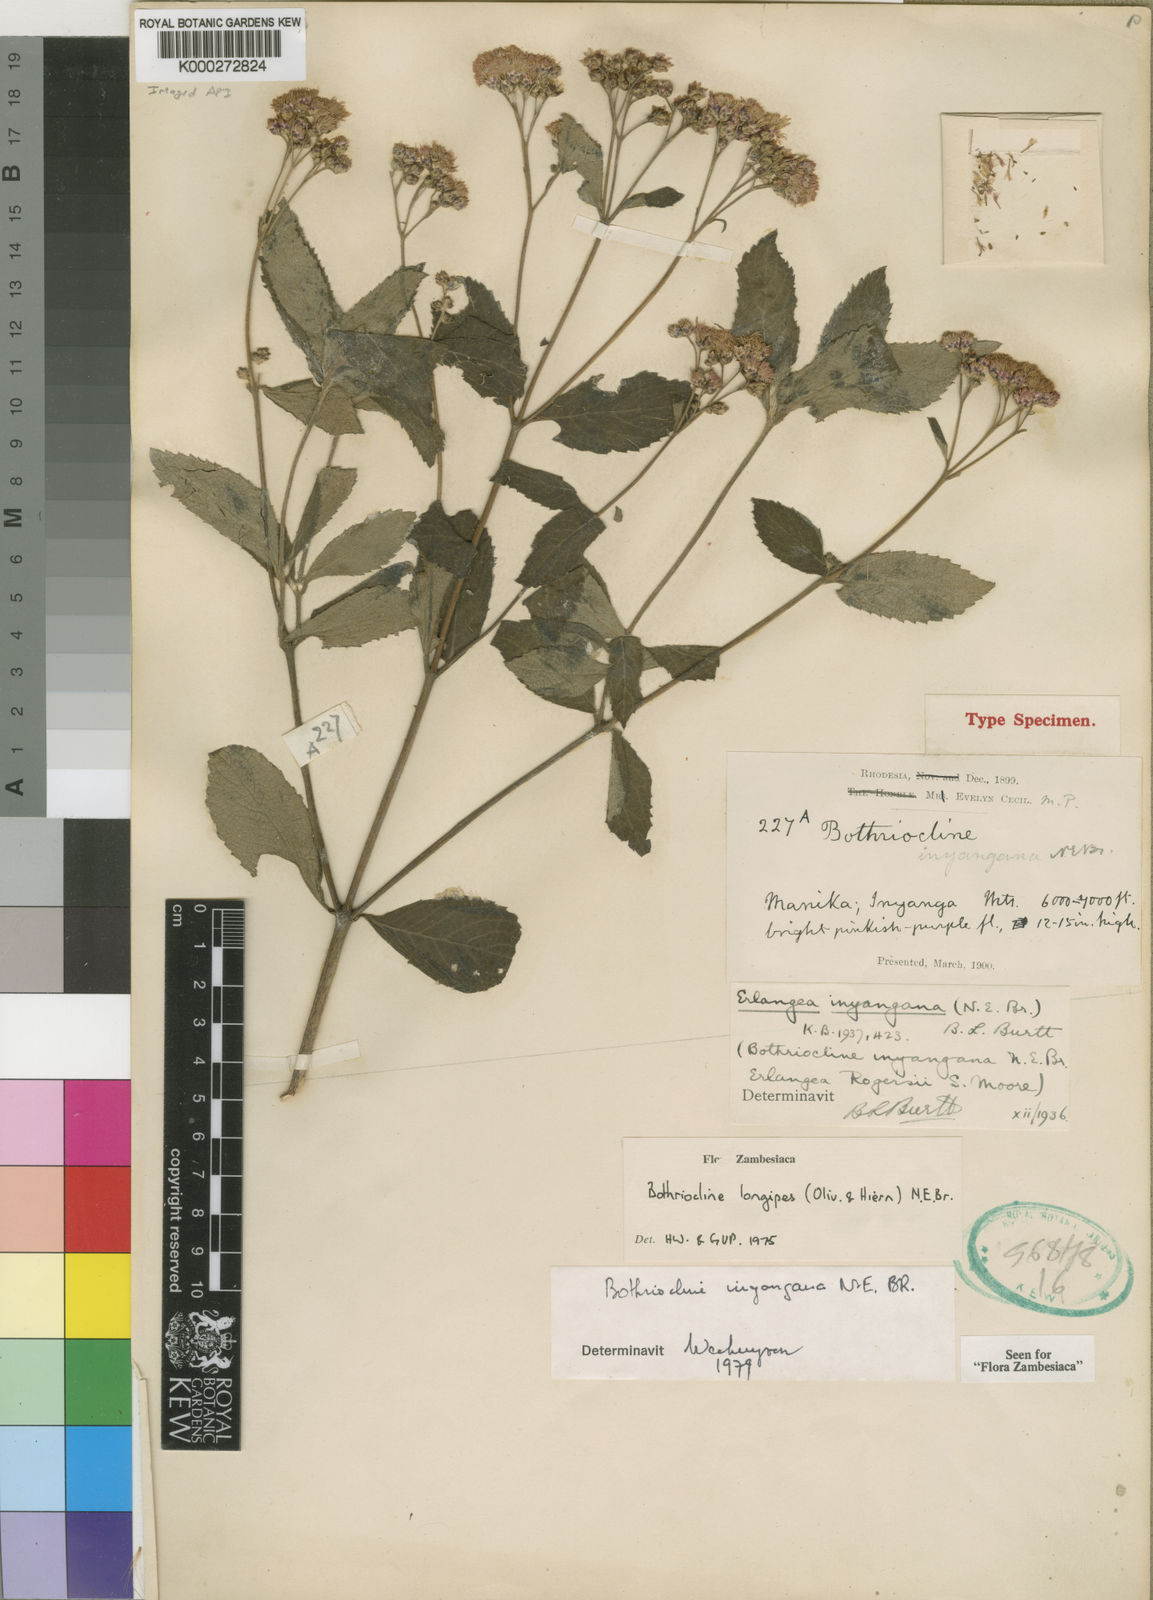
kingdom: Plantae
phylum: Tracheophyta
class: Magnoliopsida
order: Asterales
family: Asteraceae
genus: Bothriocline
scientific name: Bothriocline inyangana
